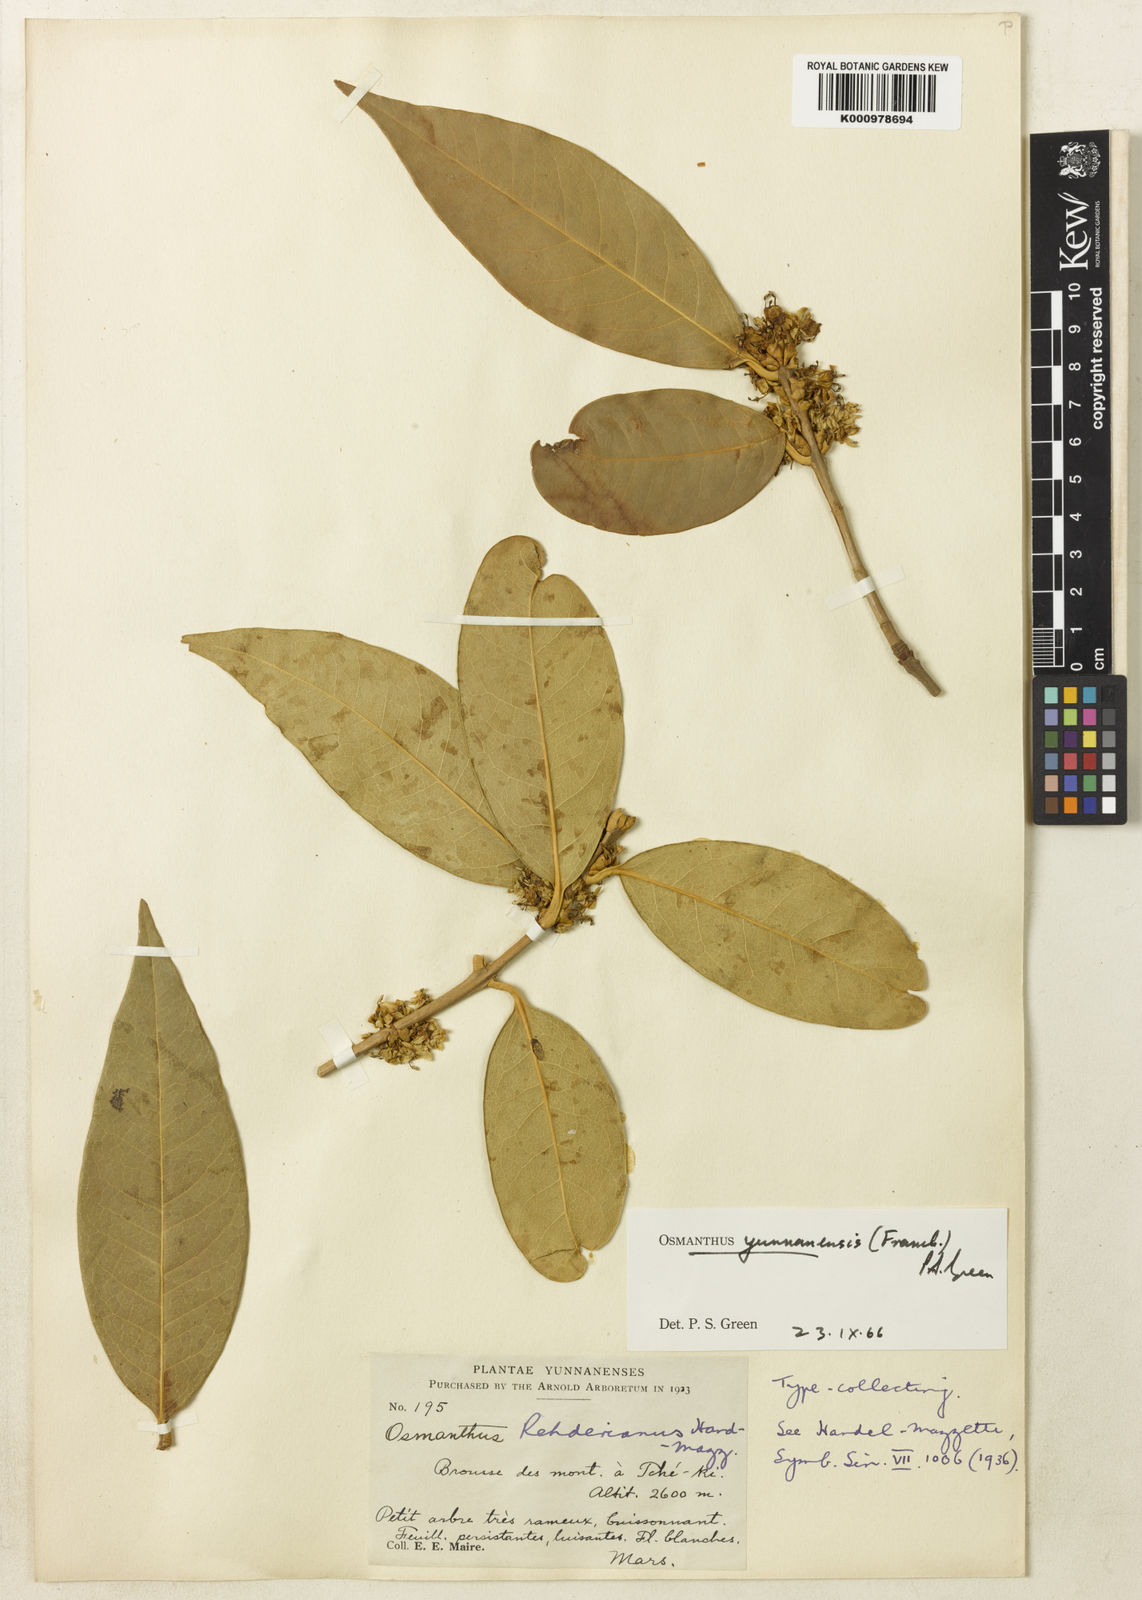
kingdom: Plantae
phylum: Tracheophyta
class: Magnoliopsida
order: Lamiales
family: Oleaceae
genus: Osmanthus
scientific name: Osmanthus yunnanensis
